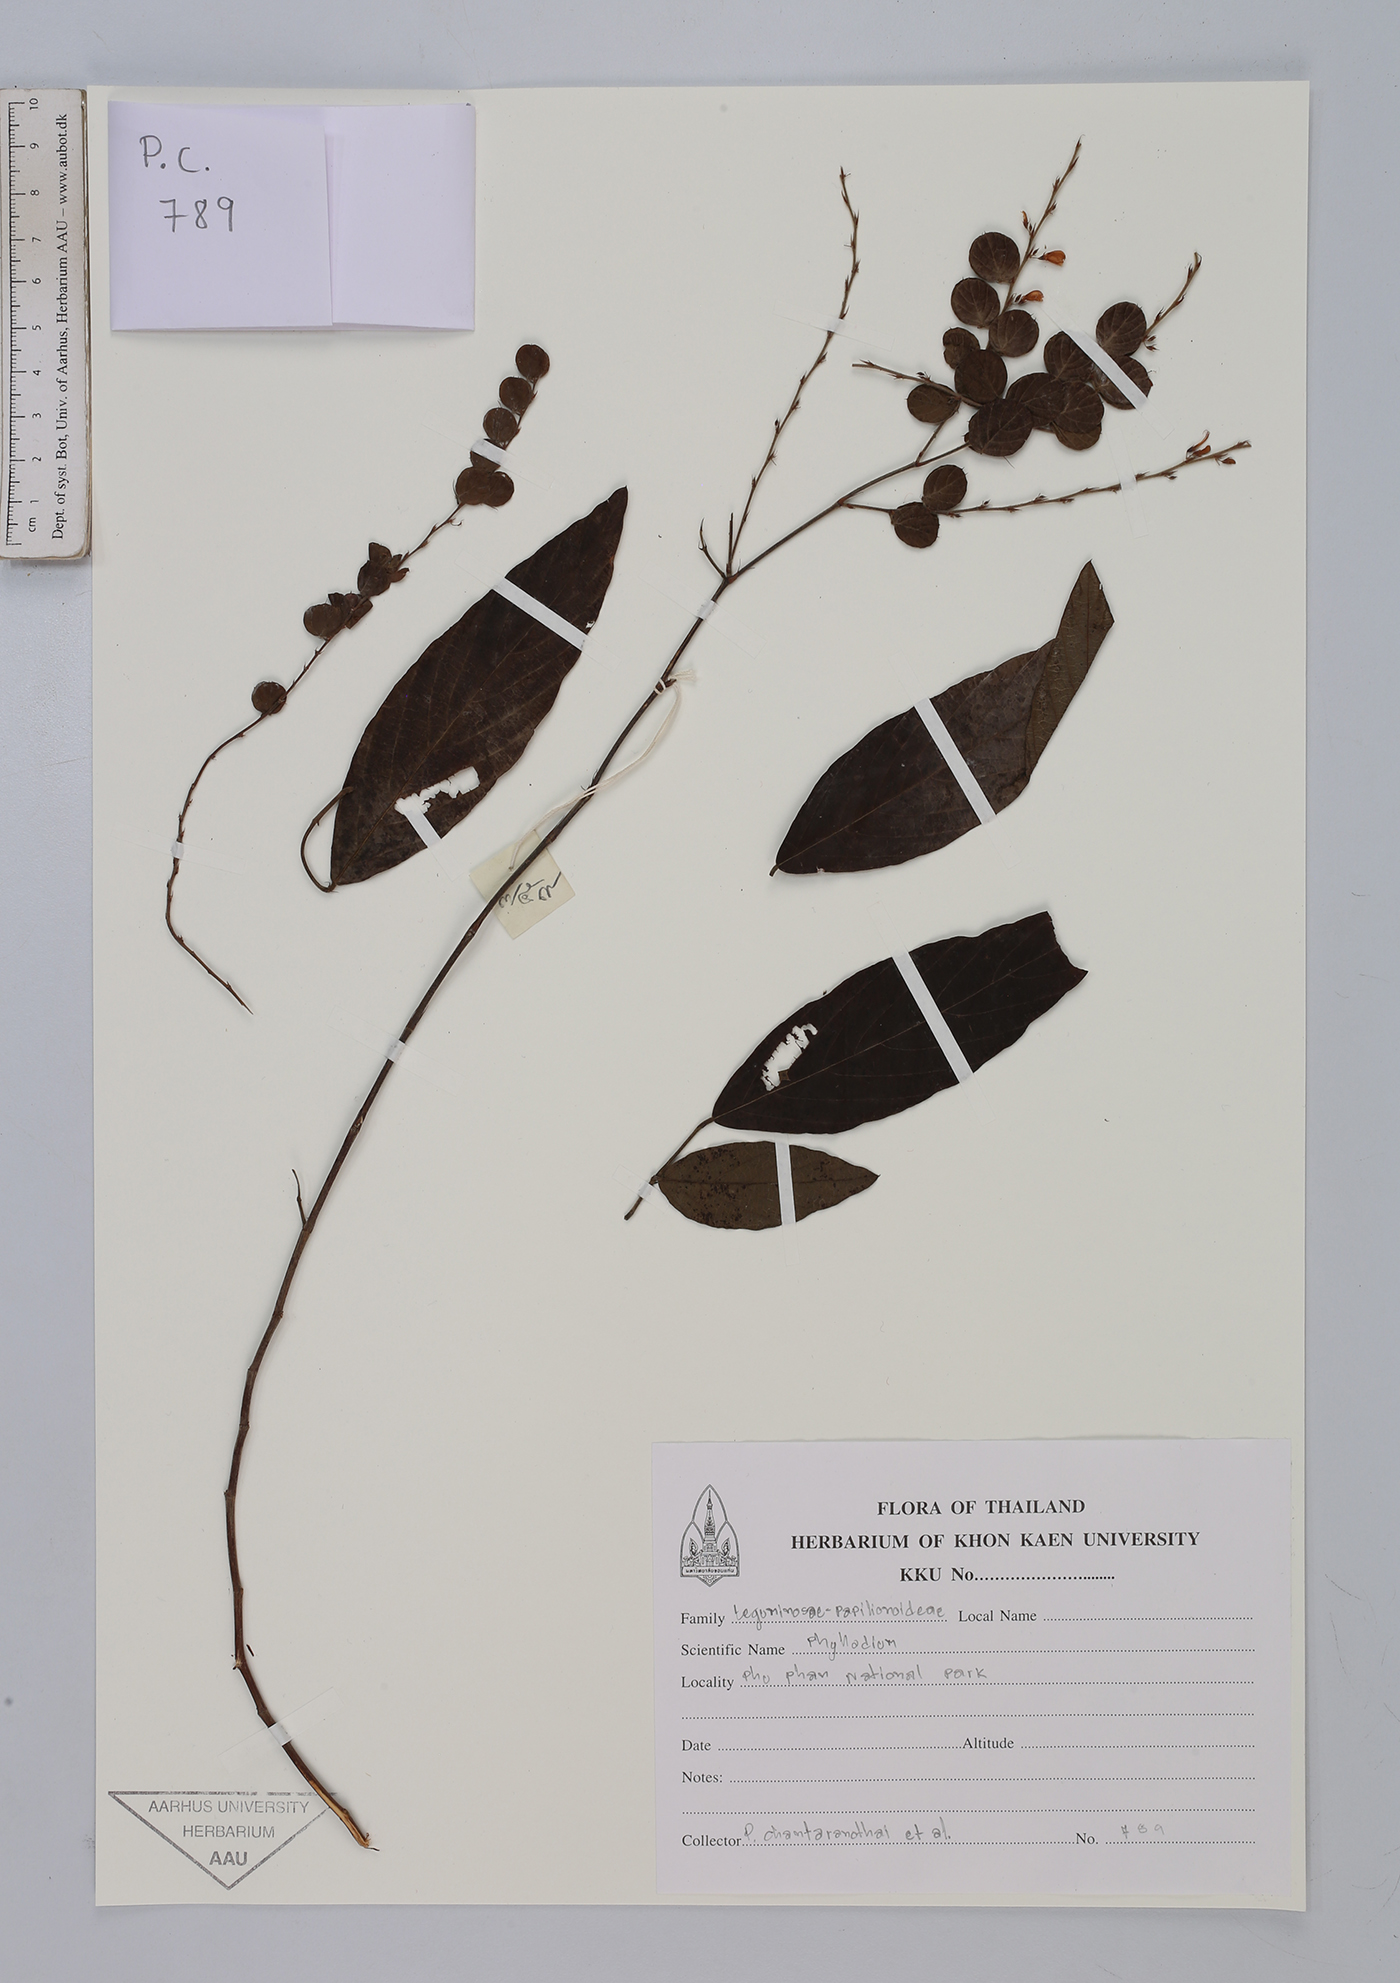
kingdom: Plantae
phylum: Tracheophyta
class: Magnoliopsida
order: Fabales
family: Fabaceae
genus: Phyllodium
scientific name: Phyllodium
